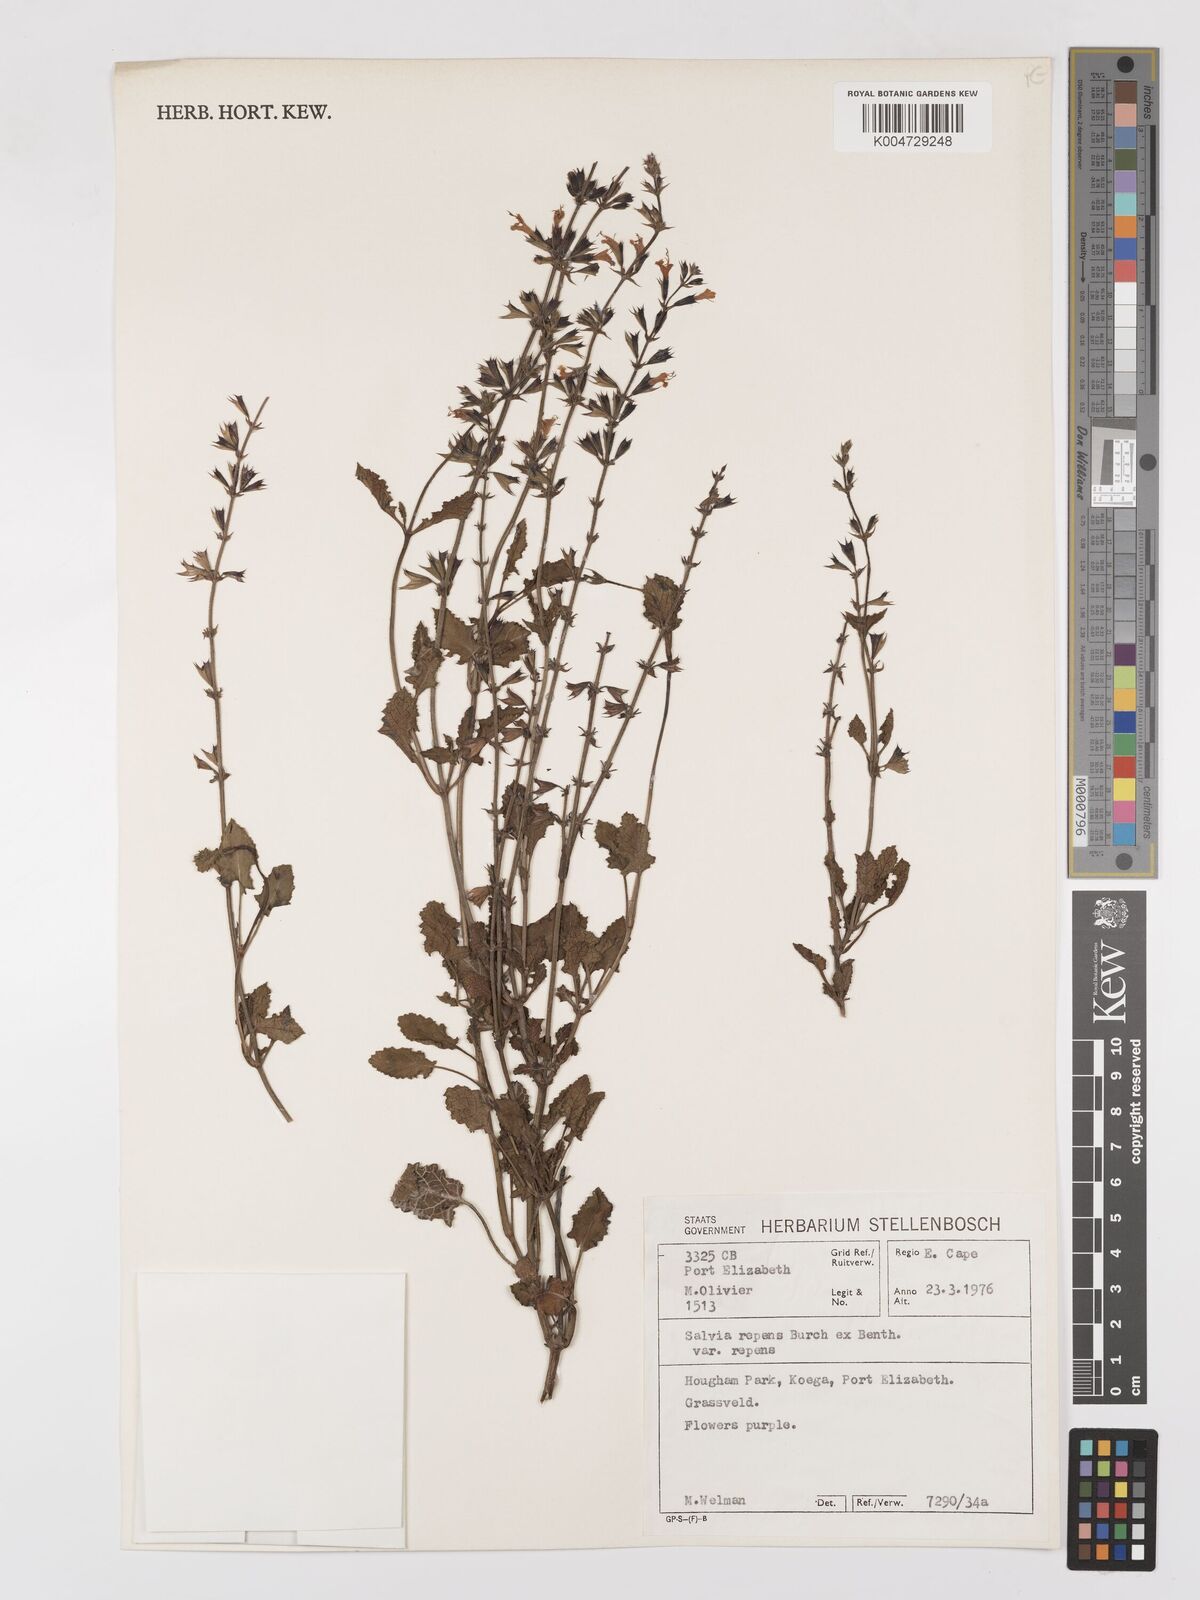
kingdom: Plantae
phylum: Tracheophyta
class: Magnoliopsida
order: Lamiales
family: Lamiaceae
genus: Salvia
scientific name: Salvia repens
